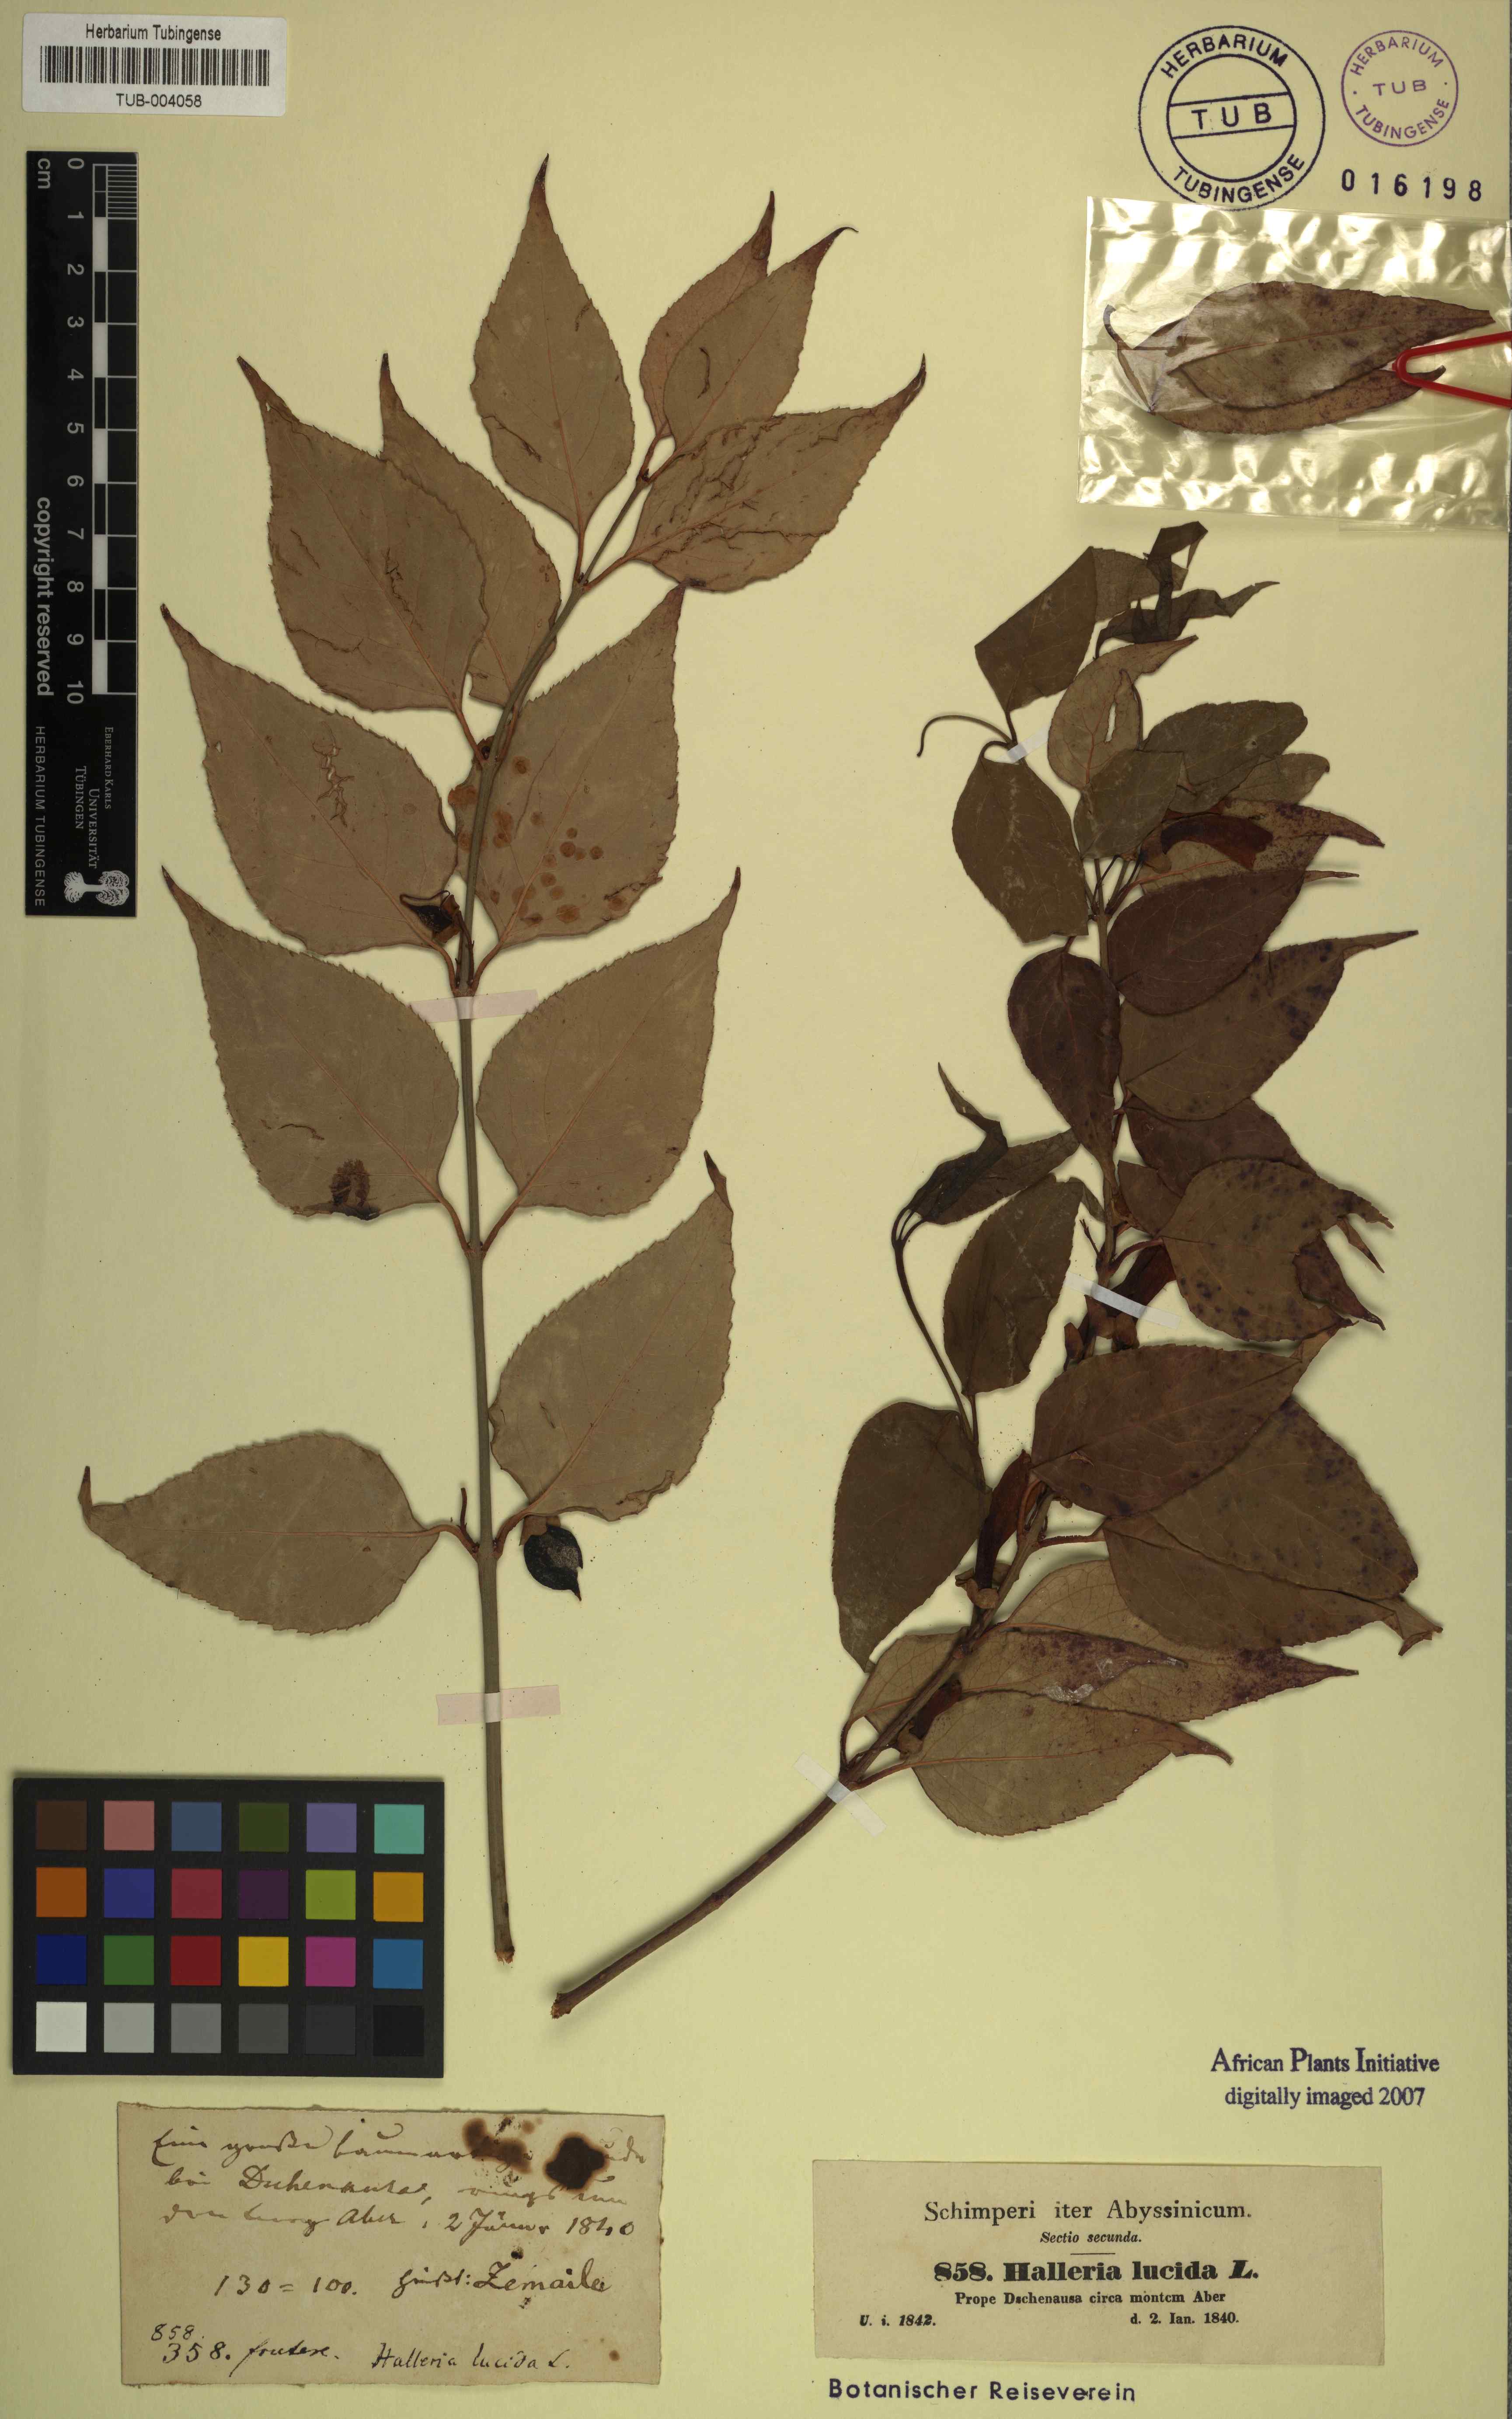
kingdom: Plantae
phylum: Tracheophyta
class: Magnoliopsida
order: Lamiales
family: Stilbaceae
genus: Halleria
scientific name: Halleria lucida
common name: Tree fuschia
